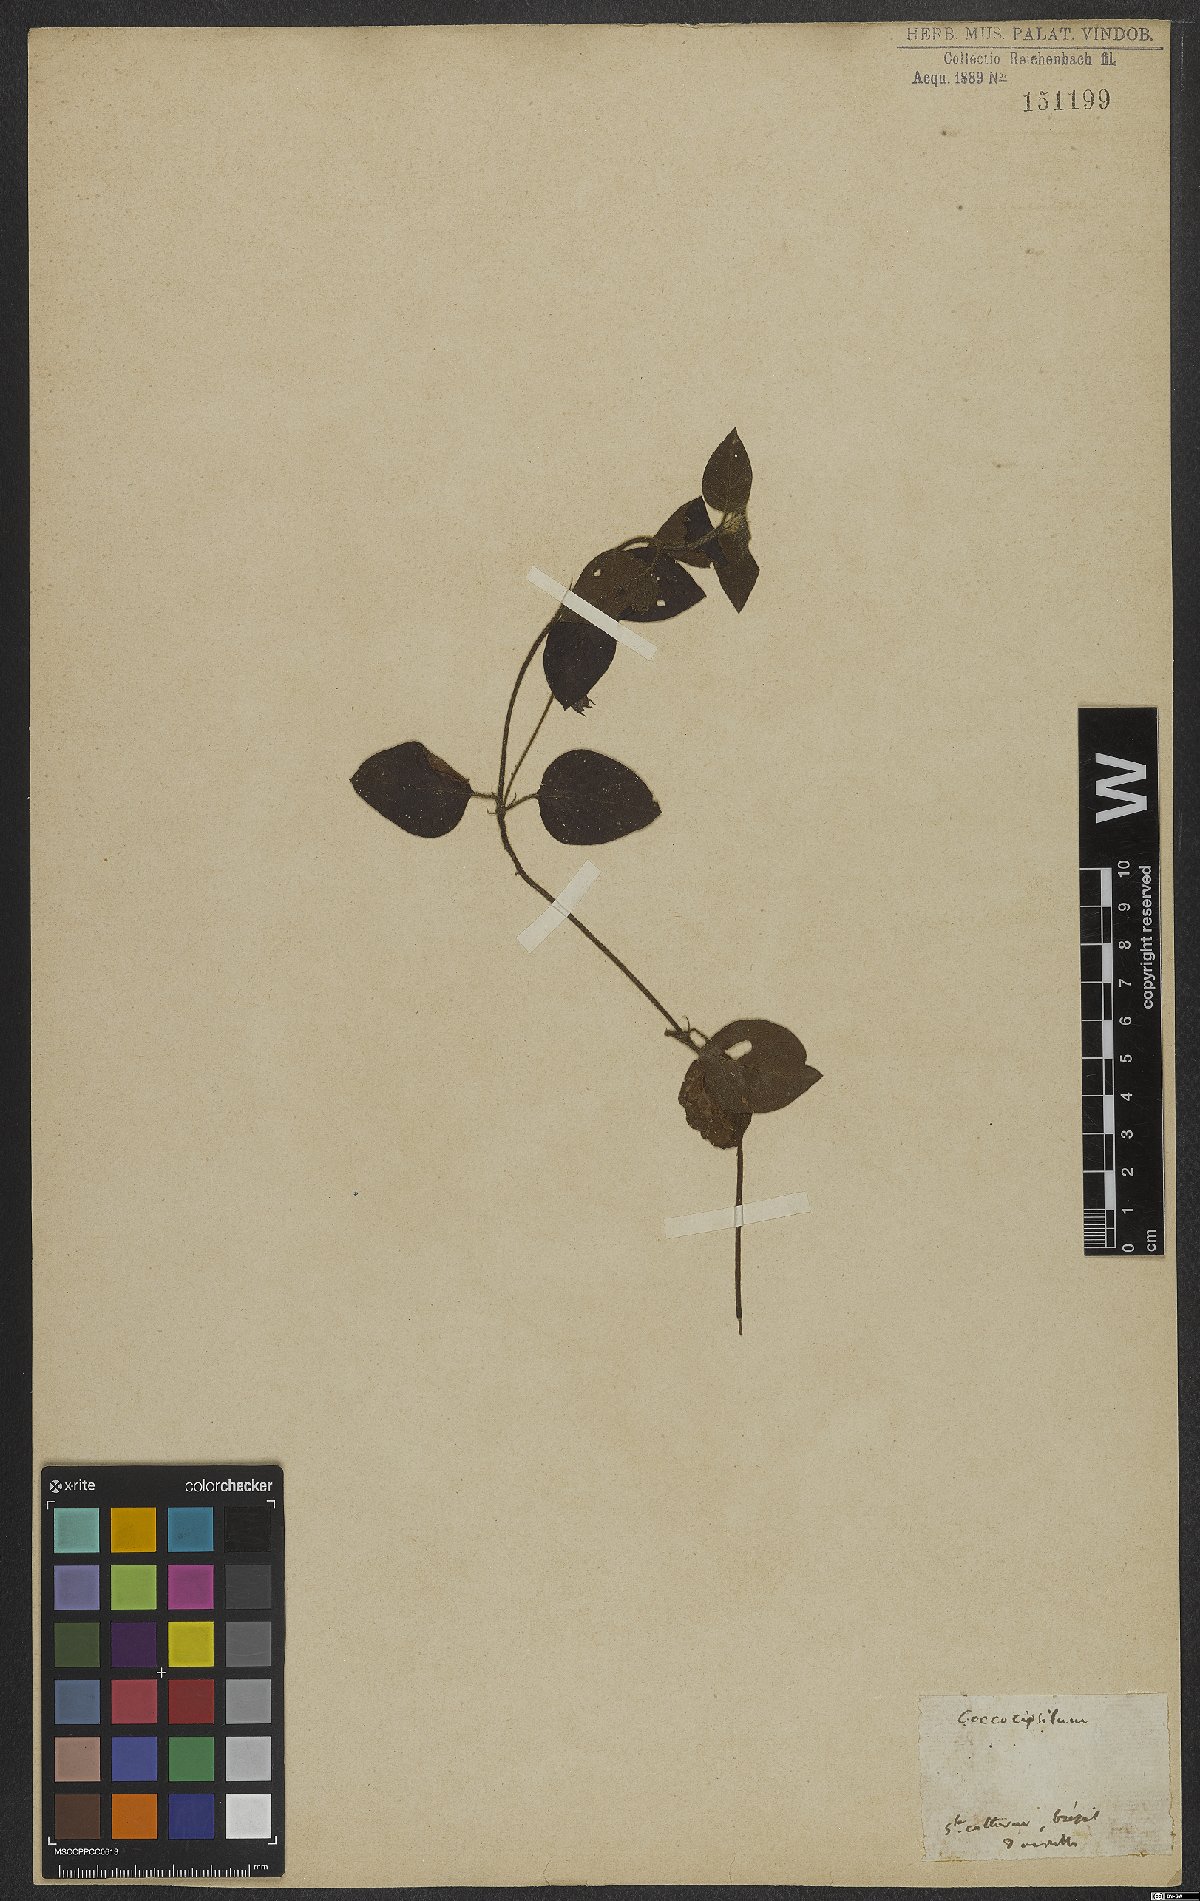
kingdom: Plantae
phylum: Tracheophyta
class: Magnoliopsida
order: Gentianales
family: Rubiaceae
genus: Coccocypselum
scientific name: Coccocypselum
